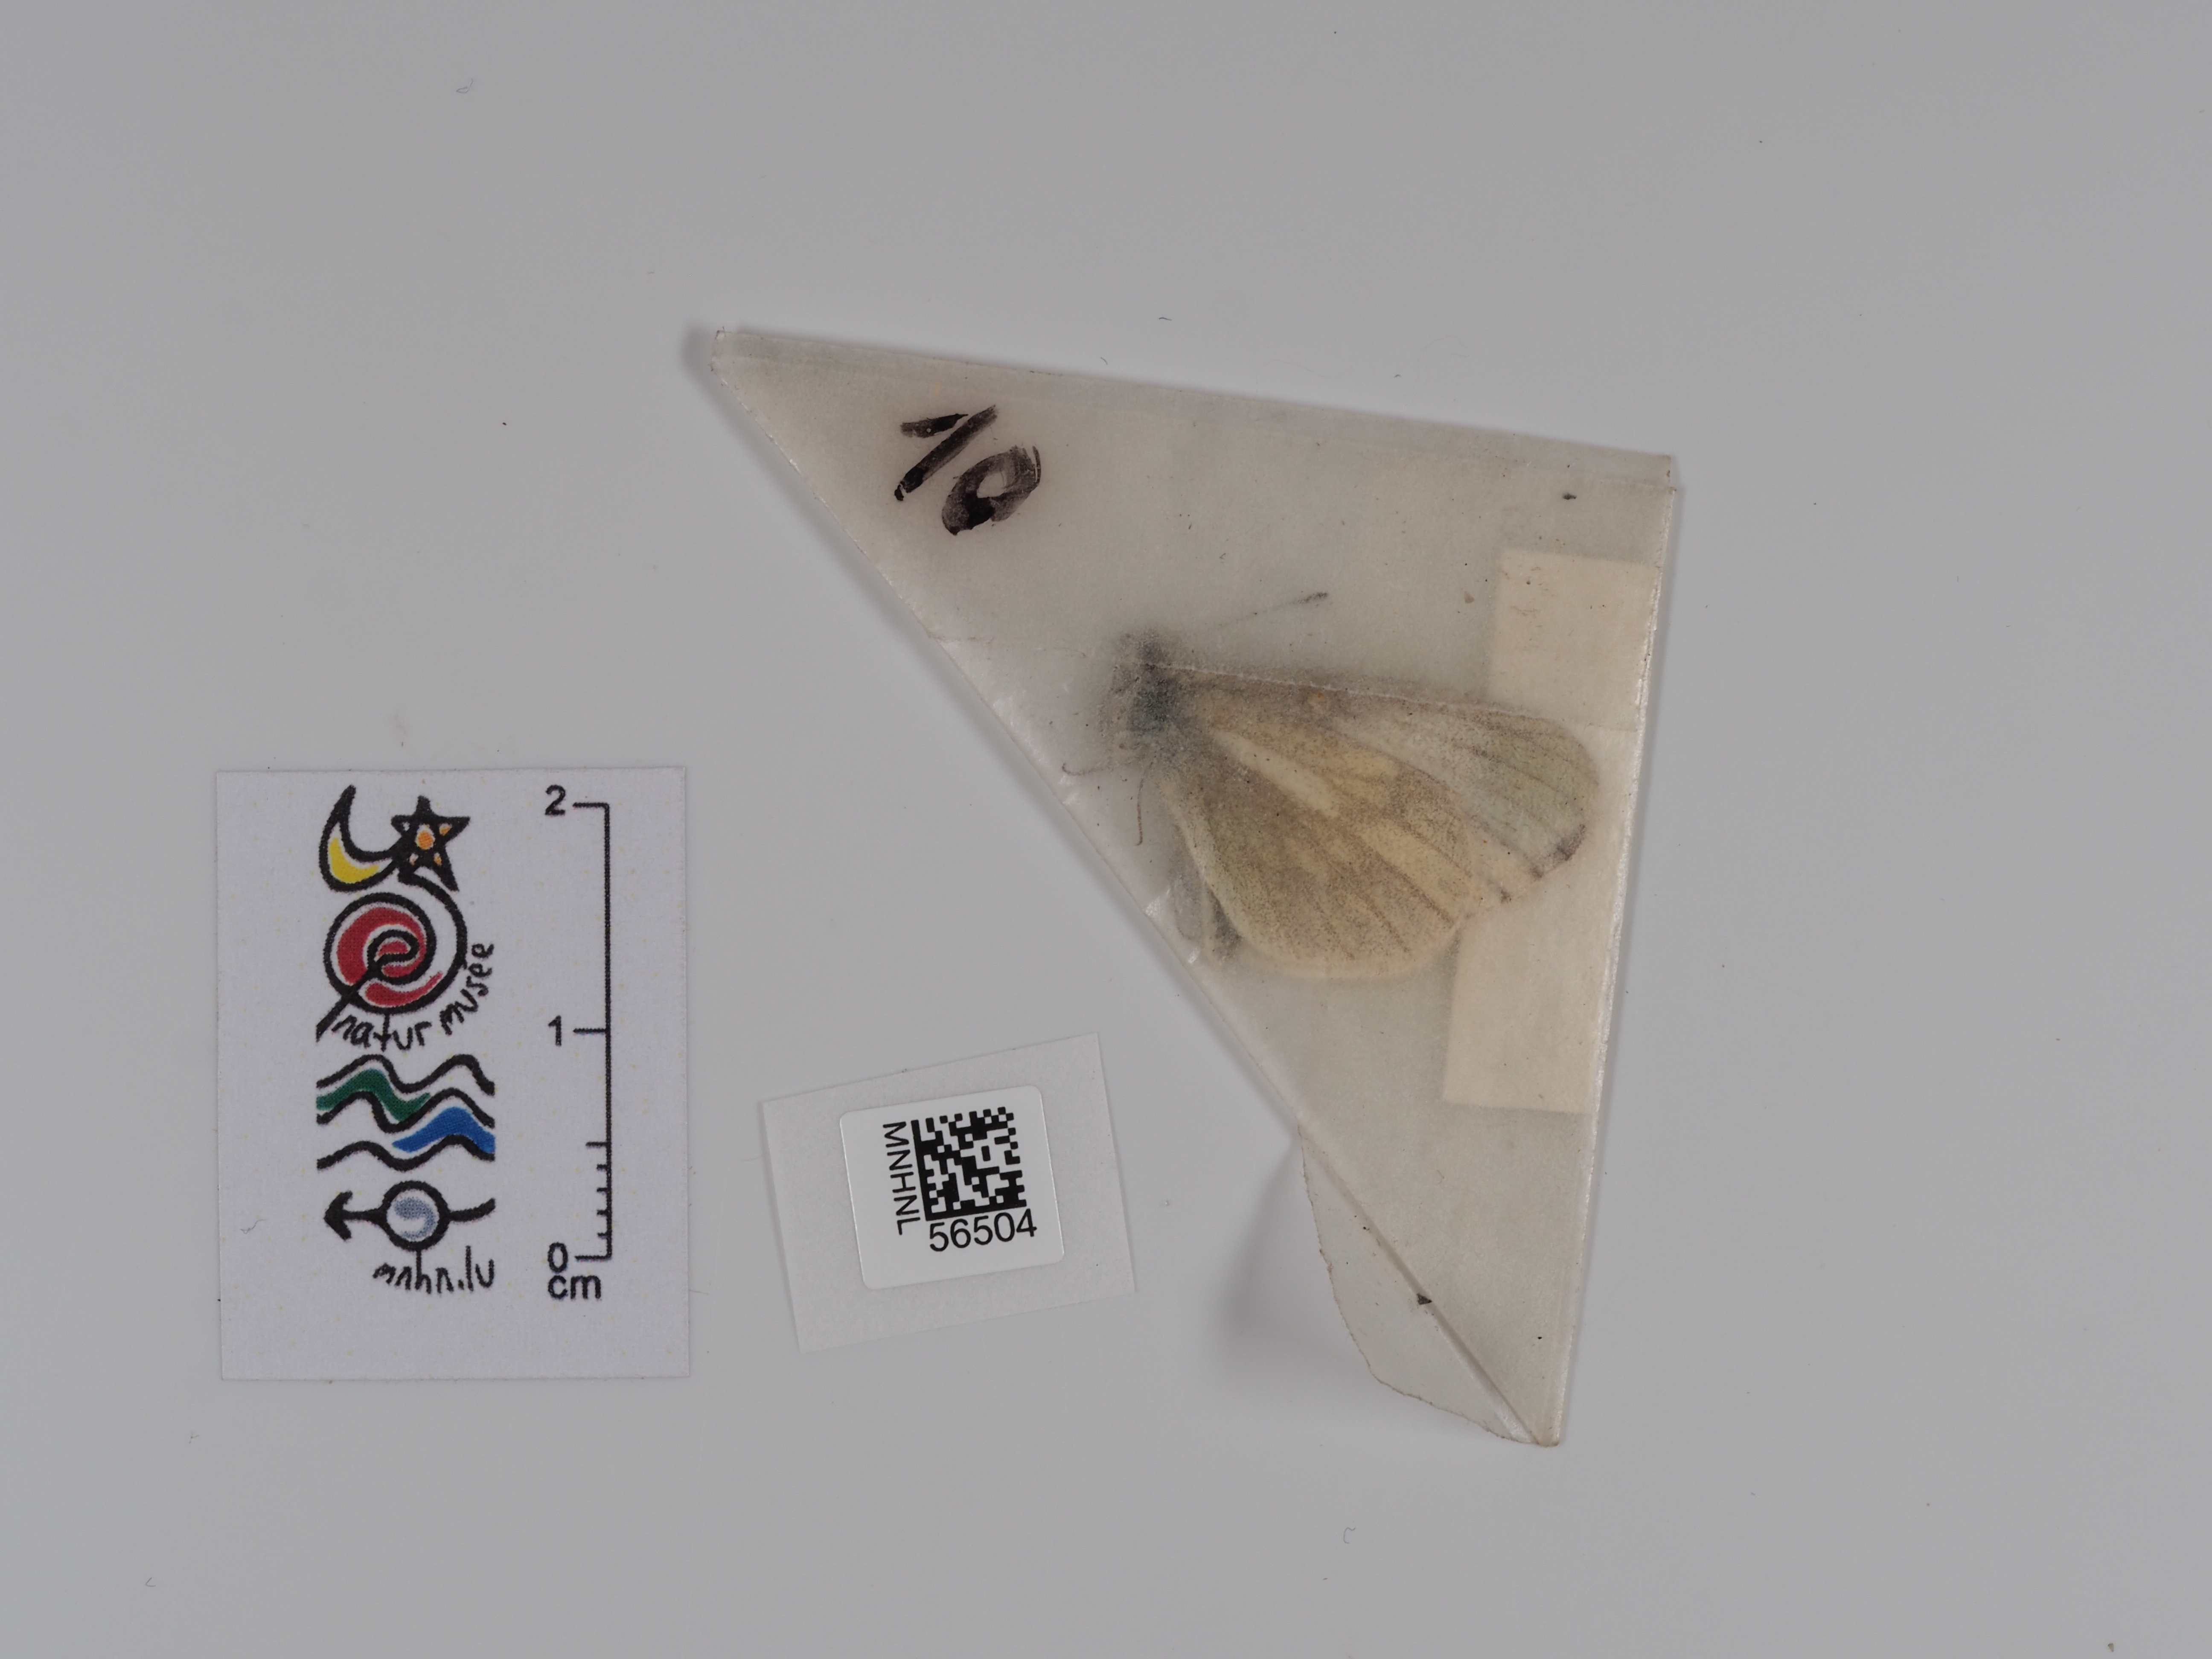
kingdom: Animalia
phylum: Arthropoda
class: Insecta
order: Lepidoptera
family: Pieridae
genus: Leptidea
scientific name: Leptidea sinapis
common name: Wood white
